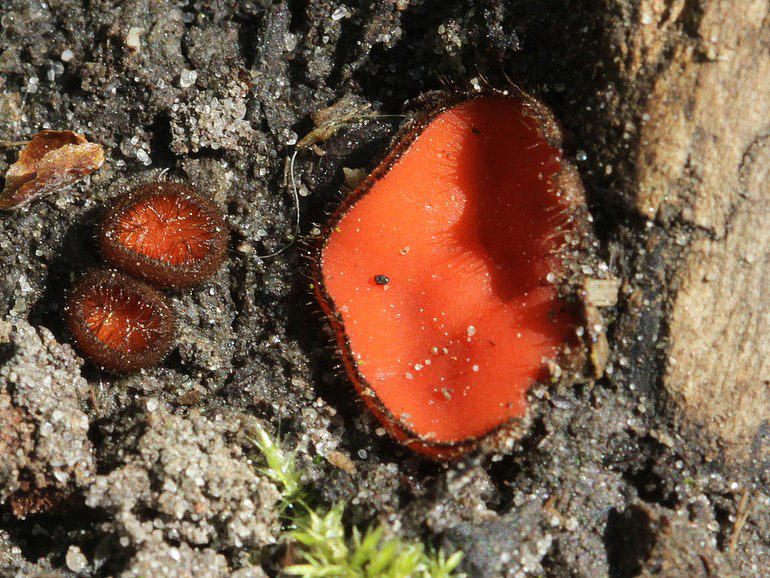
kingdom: Fungi
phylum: Ascomycota
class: Pezizomycetes
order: Pezizales
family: Pyronemataceae
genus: Scutellinia
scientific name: Scutellinia scutellata
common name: frynset skjoldbæger
